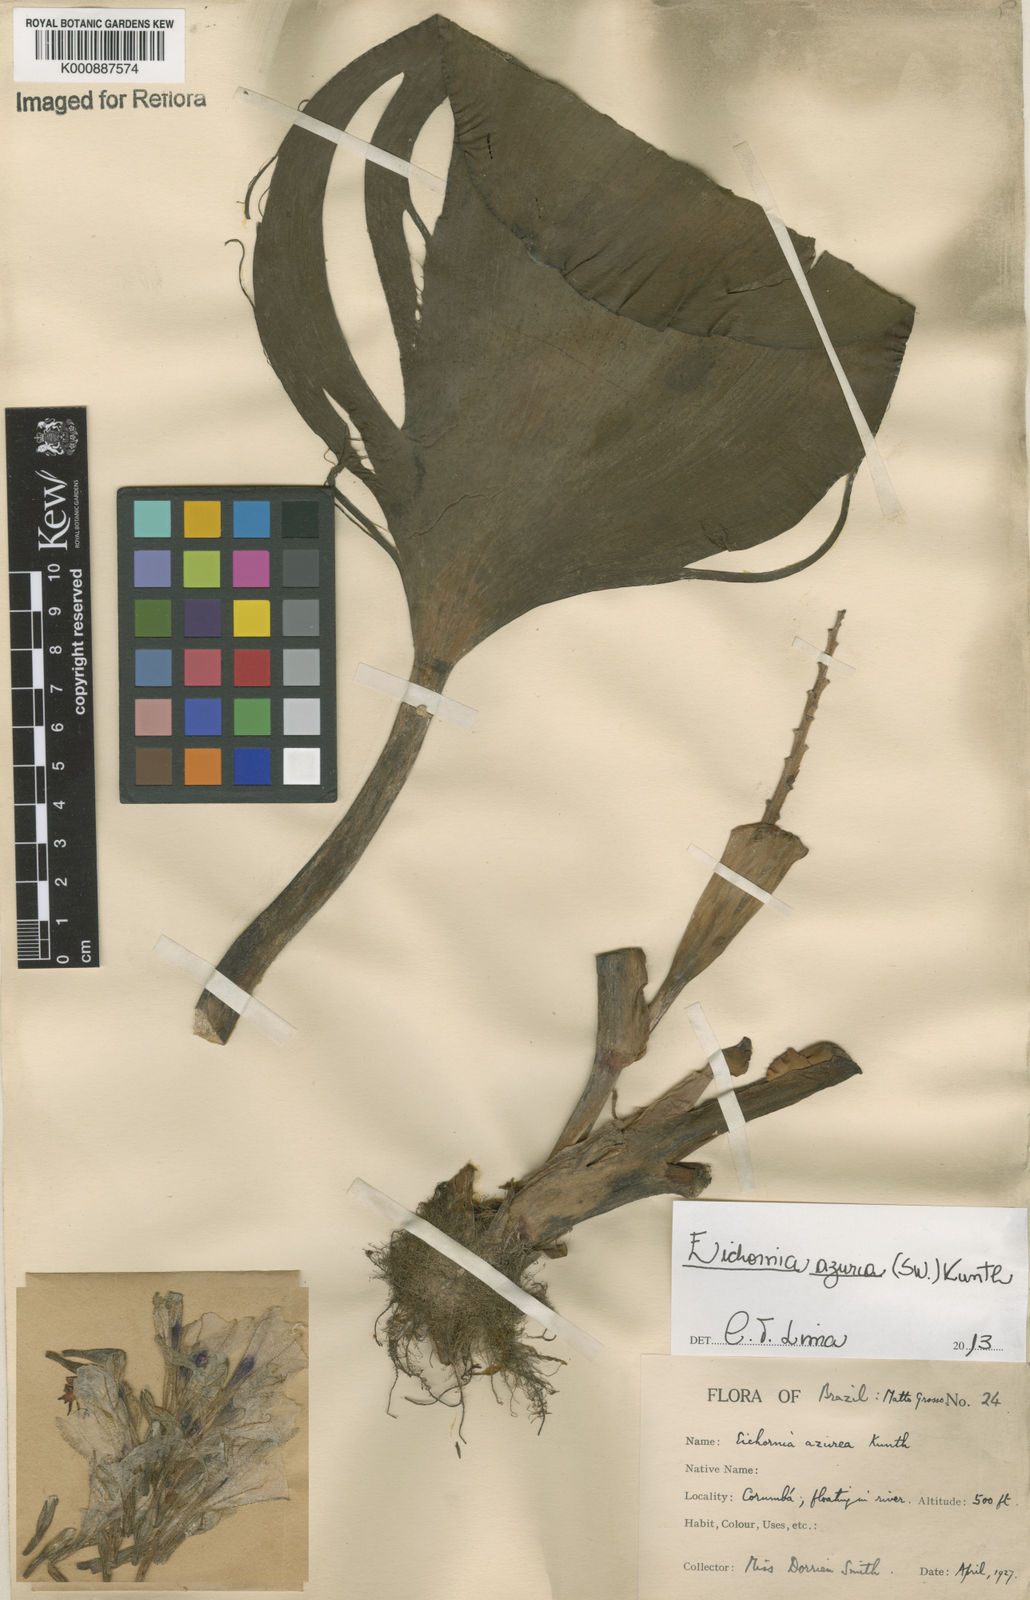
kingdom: Plantae
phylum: Tracheophyta
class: Liliopsida
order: Commelinales
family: Pontederiaceae
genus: Pontederia
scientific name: Pontederia azurea
